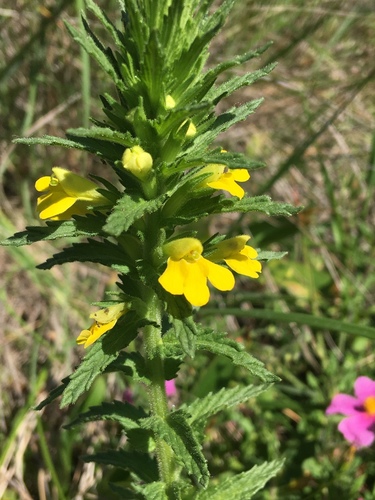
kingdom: Plantae
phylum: Tracheophyta
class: Magnoliopsida
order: Lamiales
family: Orobanchaceae
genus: Bellardia
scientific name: Bellardia trixago
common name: Mediterranean lineseed
